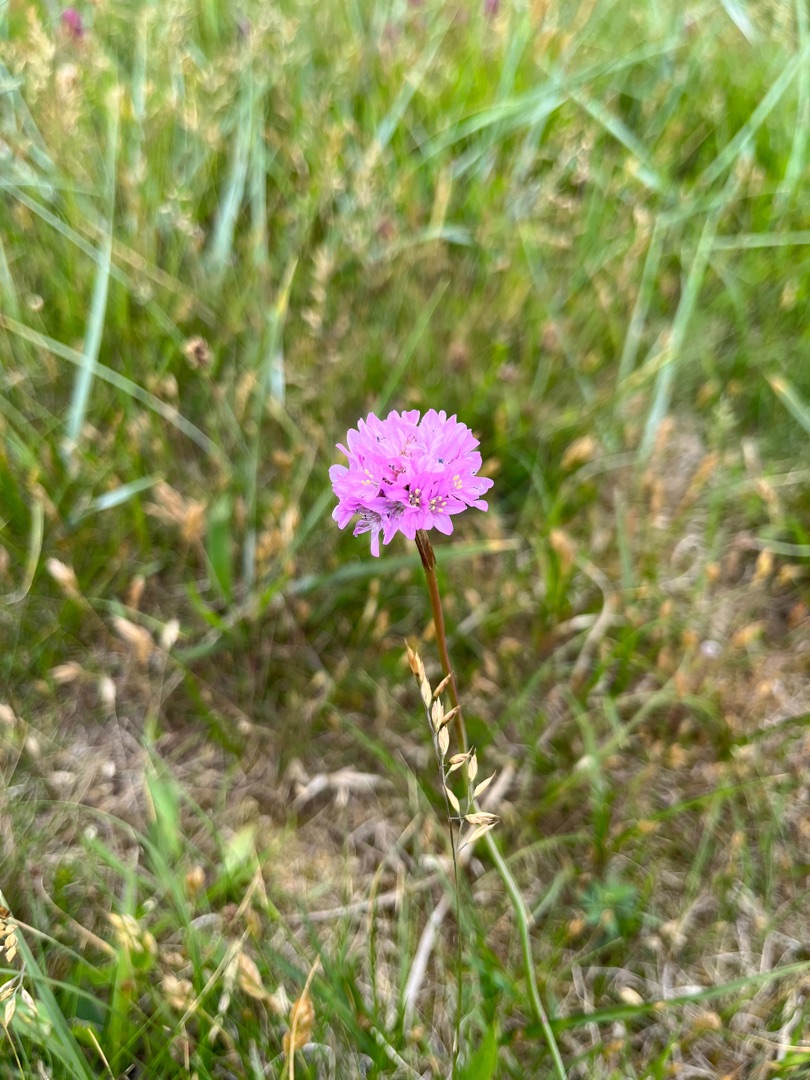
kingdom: Plantae
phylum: Tracheophyta
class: Magnoliopsida
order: Caryophyllales
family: Plumbaginaceae
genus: Armeria
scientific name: Armeria maritima
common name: Engelskgræs
